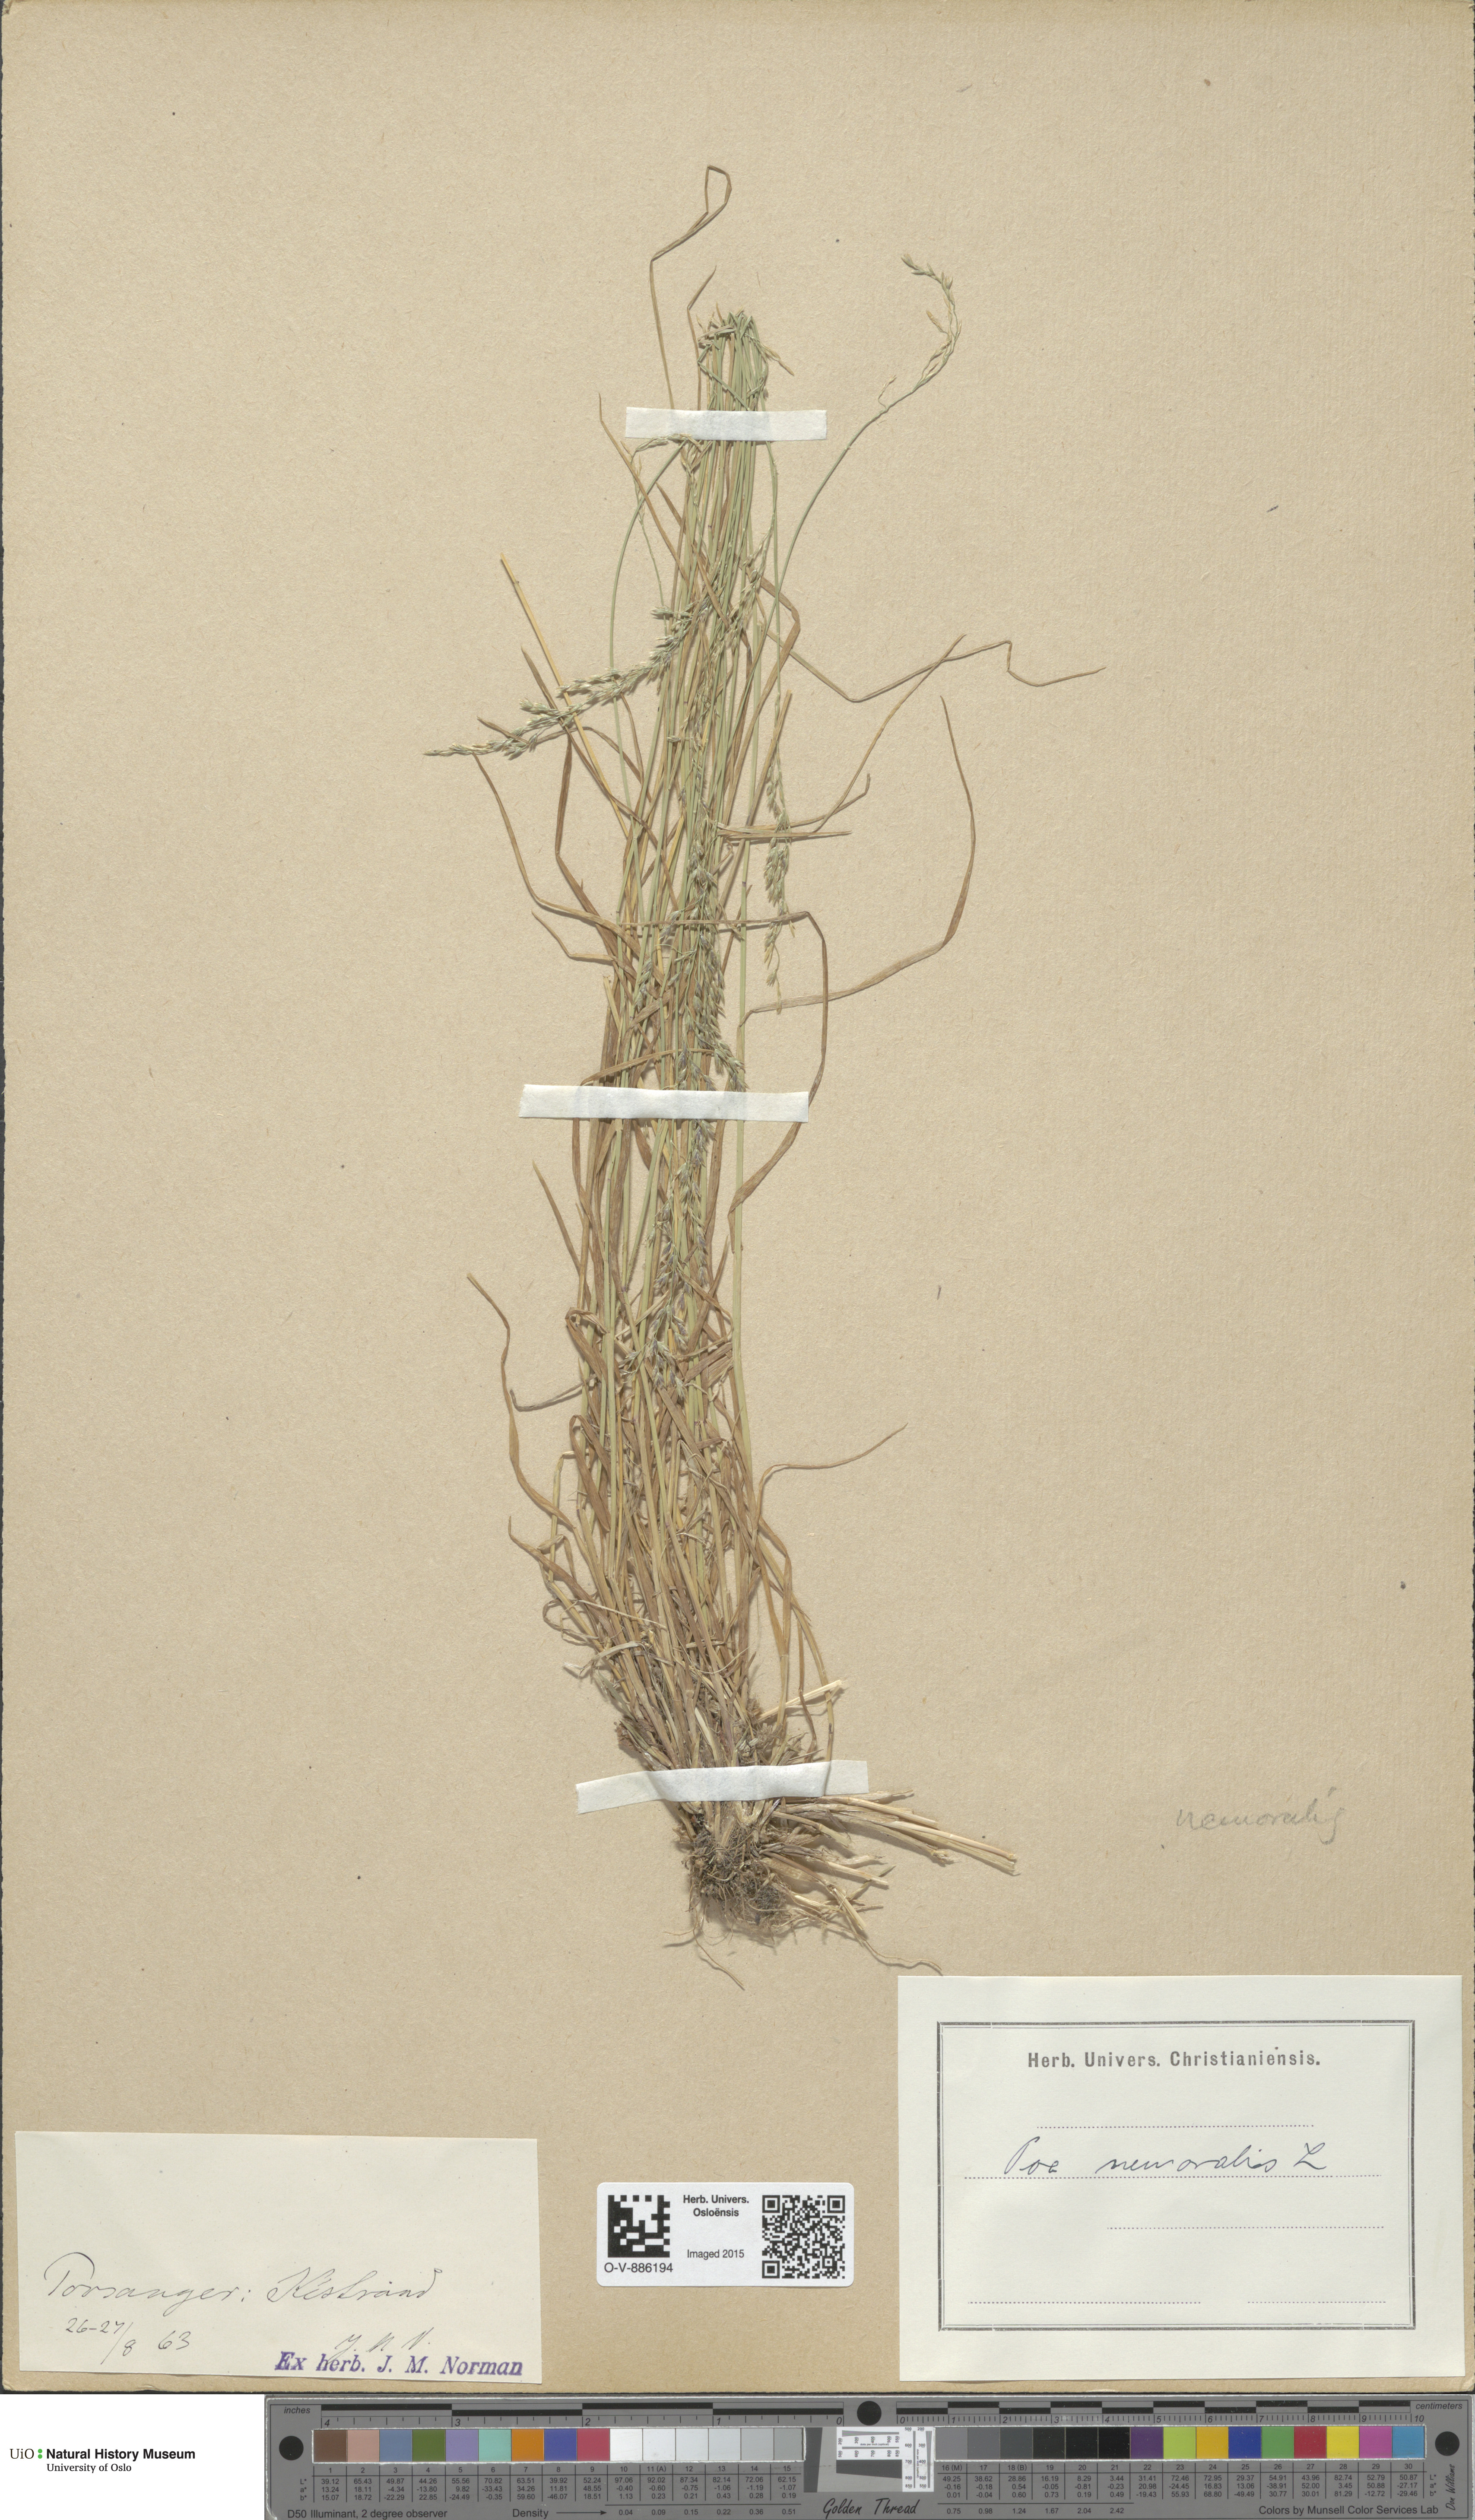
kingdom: Plantae
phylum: Tracheophyta
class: Liliopsida
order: Poales
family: Poaceae
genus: Poa
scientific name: Poa nemoralis
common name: Wood bluegrass
